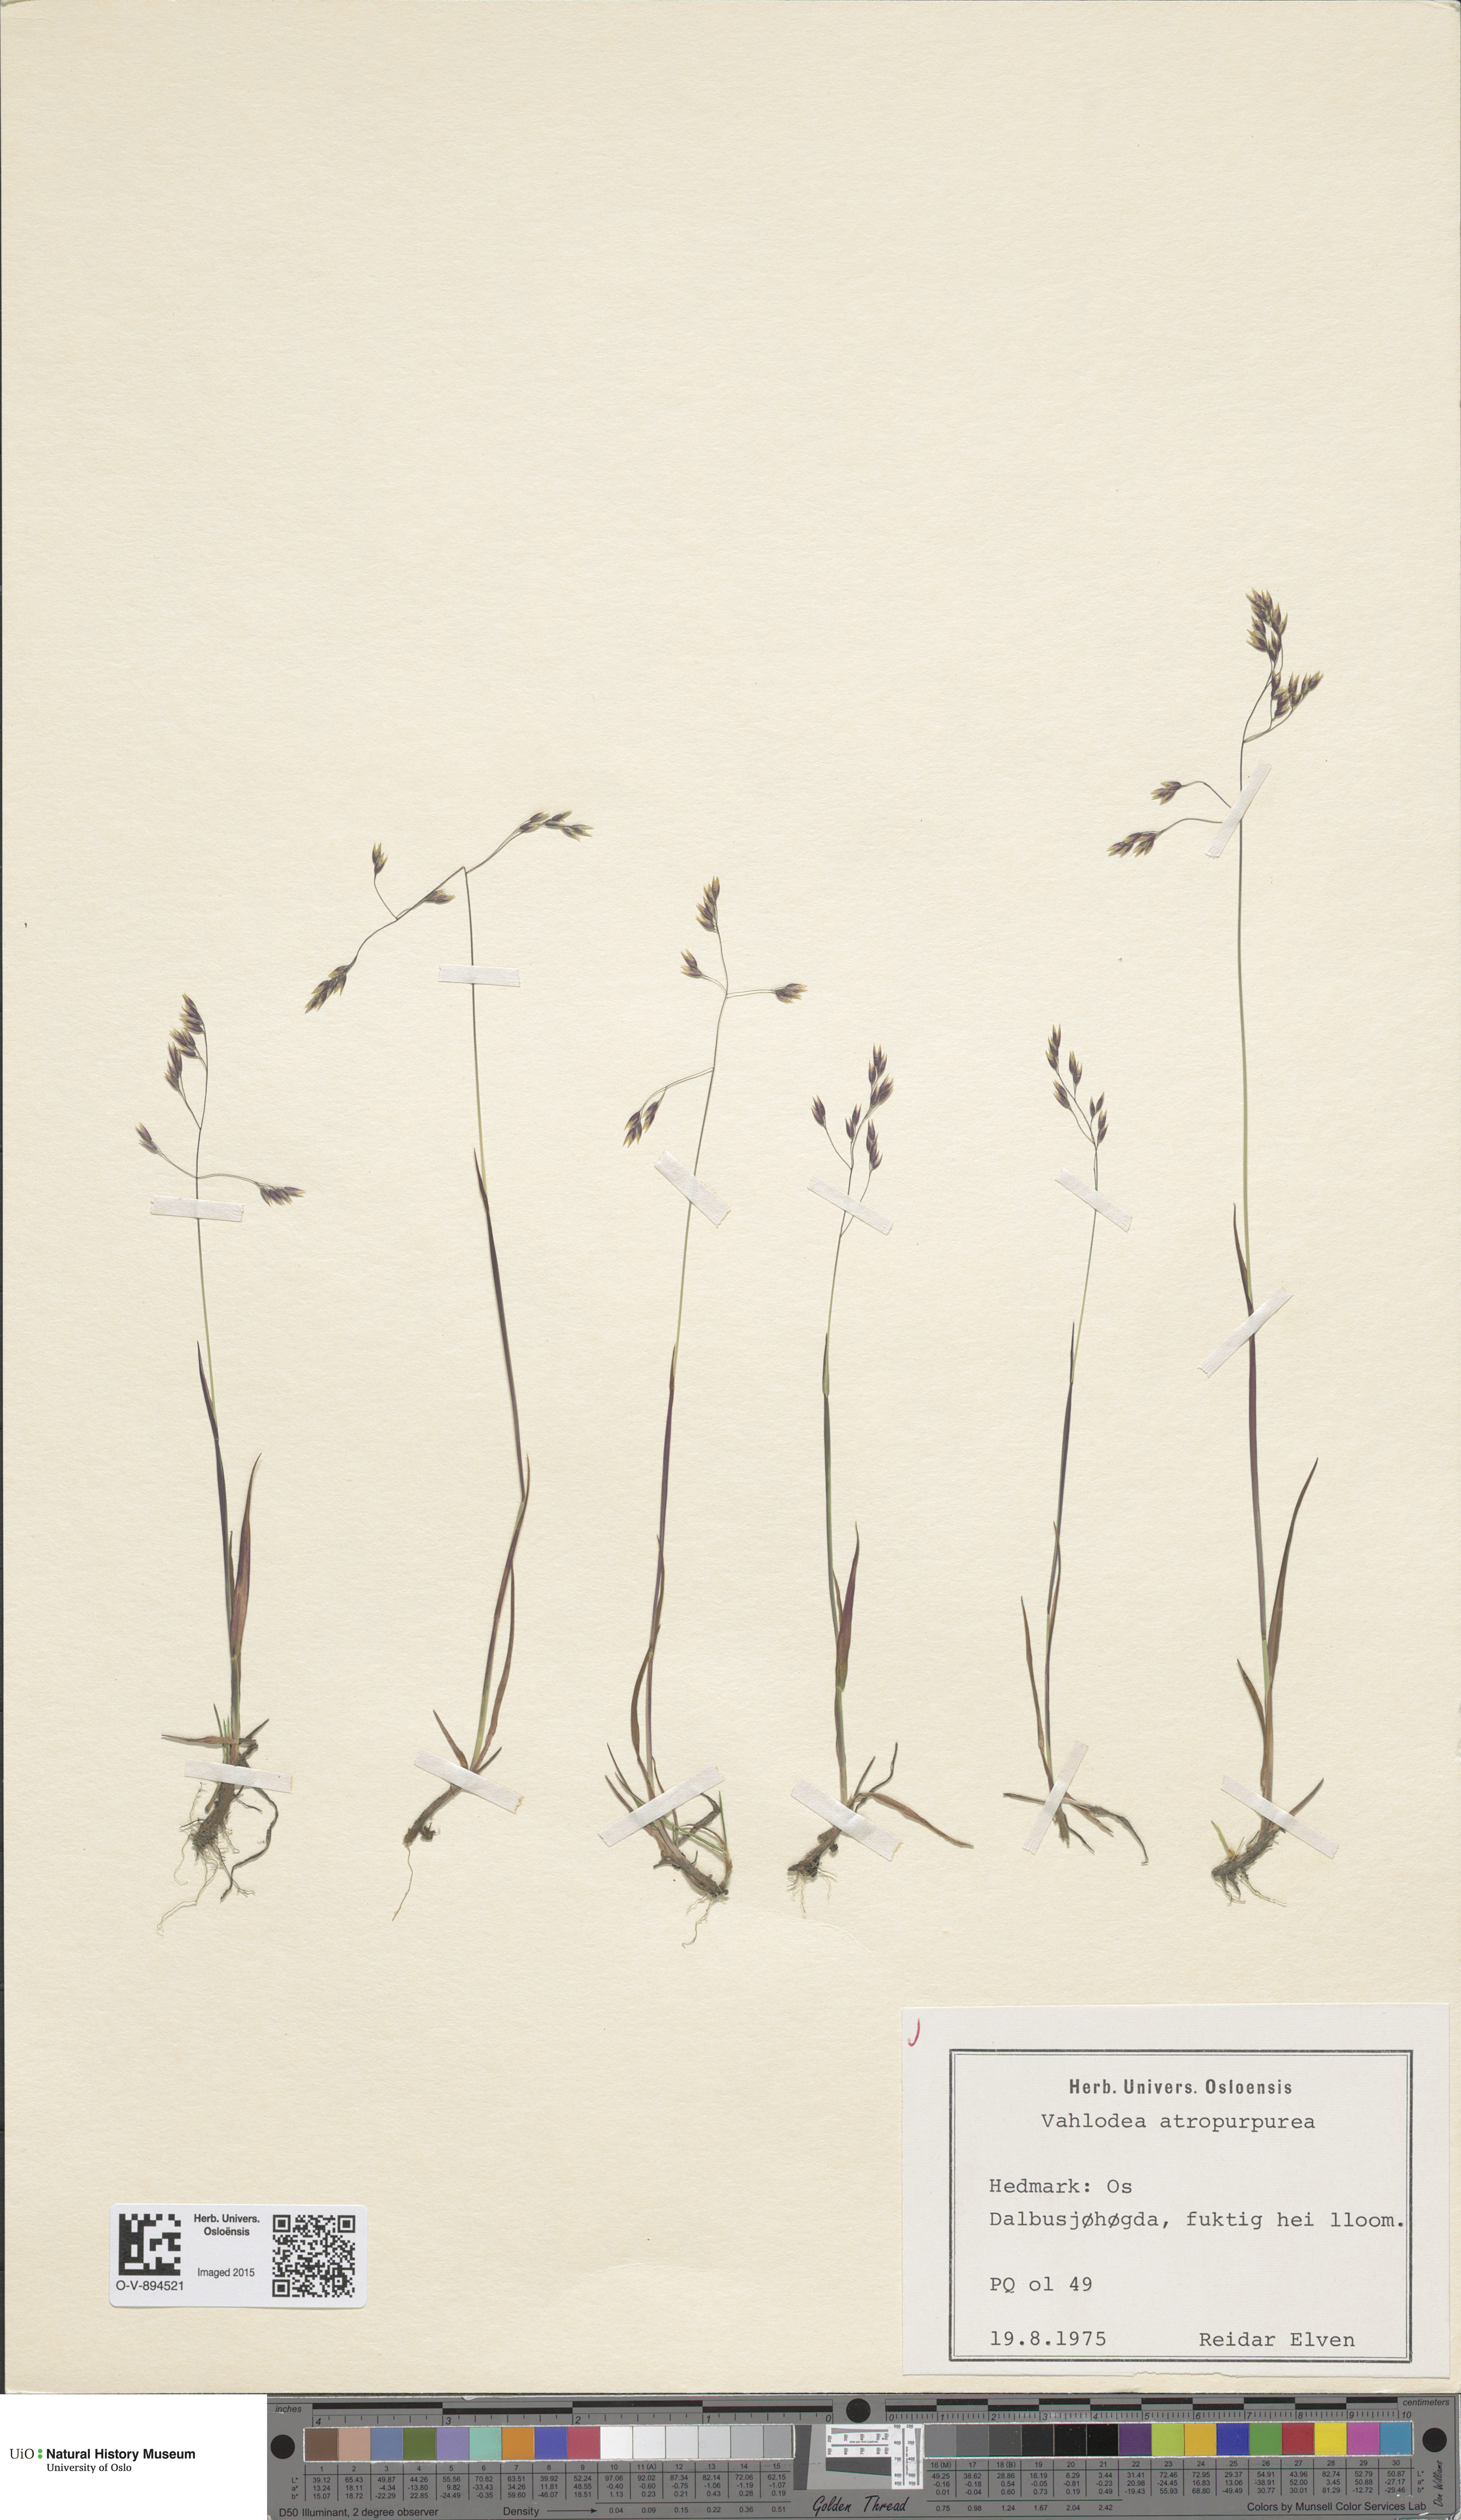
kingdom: Plantae
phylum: Tracheophyta
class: Liliopsida
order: Poales
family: Poaceae
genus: Vahlodea
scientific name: Vahlodea atropurpurea
